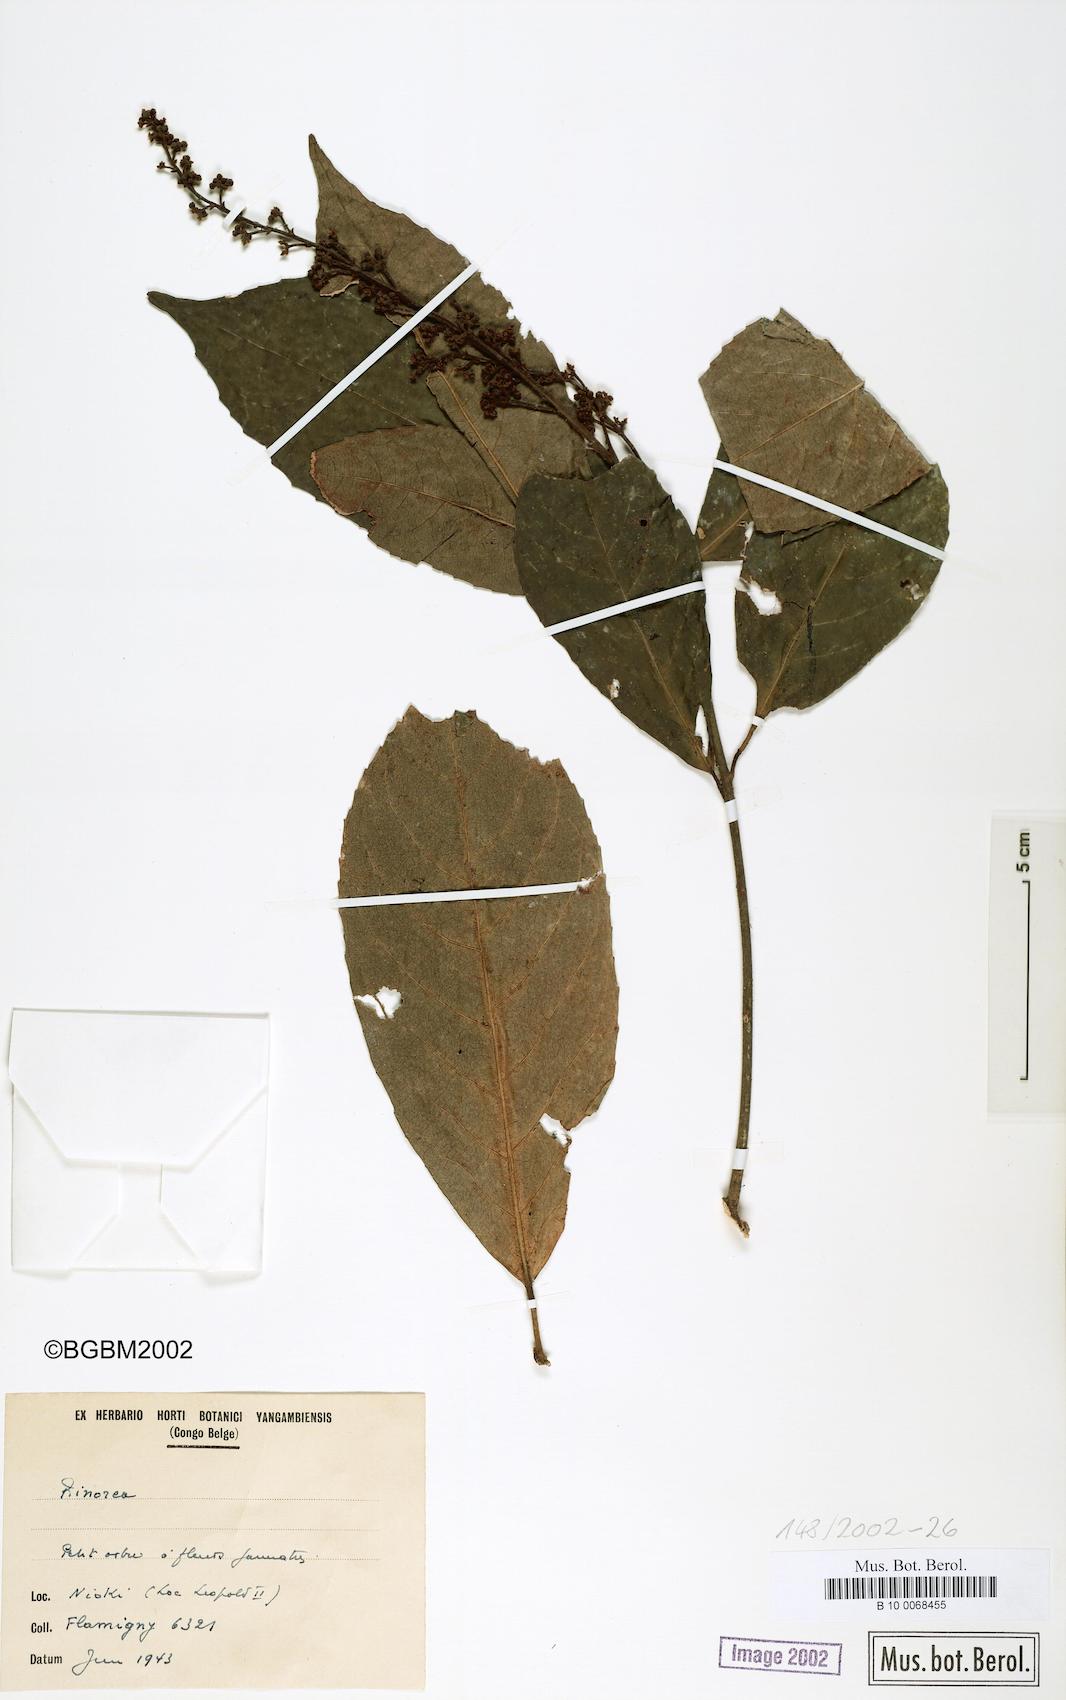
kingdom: Plantae
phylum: Tracheophyta
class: Magnoliopsida
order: Malpighiales
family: Violaceae
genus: Rinorea
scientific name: Rinorea
